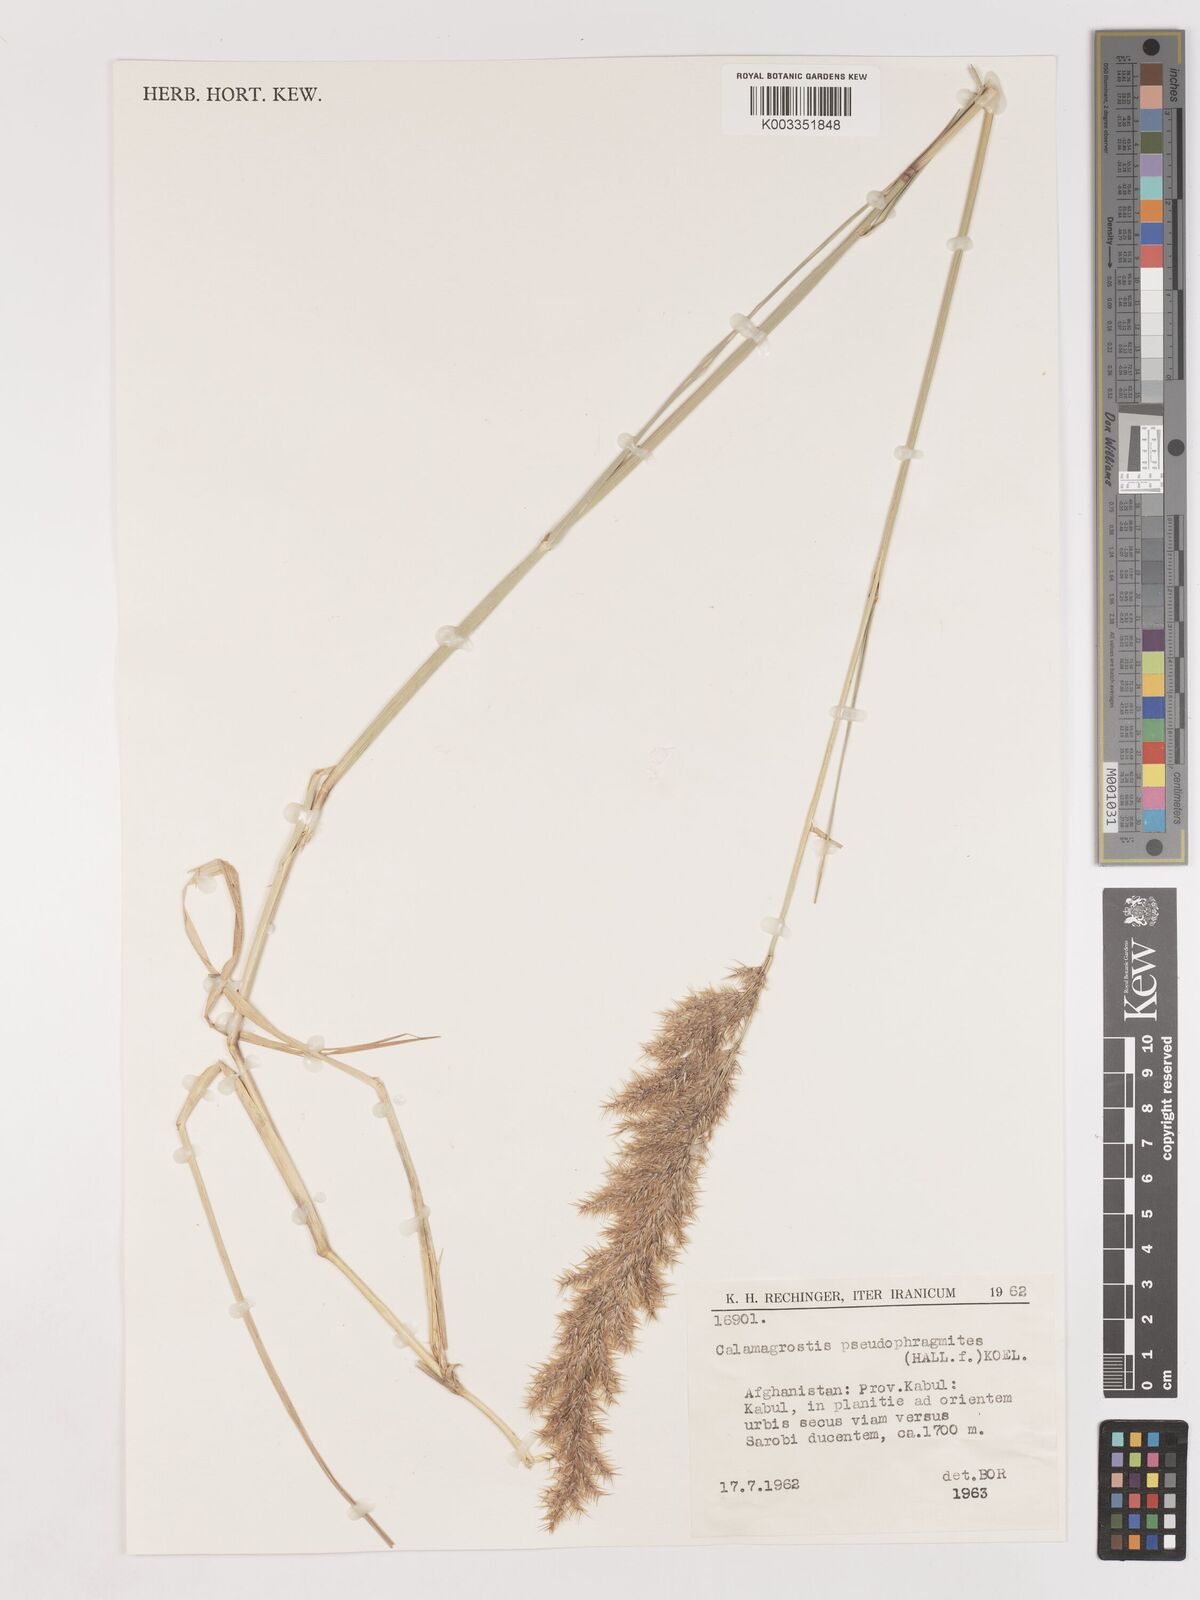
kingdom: Plantae
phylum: Tracheophyta
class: Liliopsida
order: Poales
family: Poaceae
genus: Calamagrostis
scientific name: Calamagrostis purpurea
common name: Scandinavian small-reed
